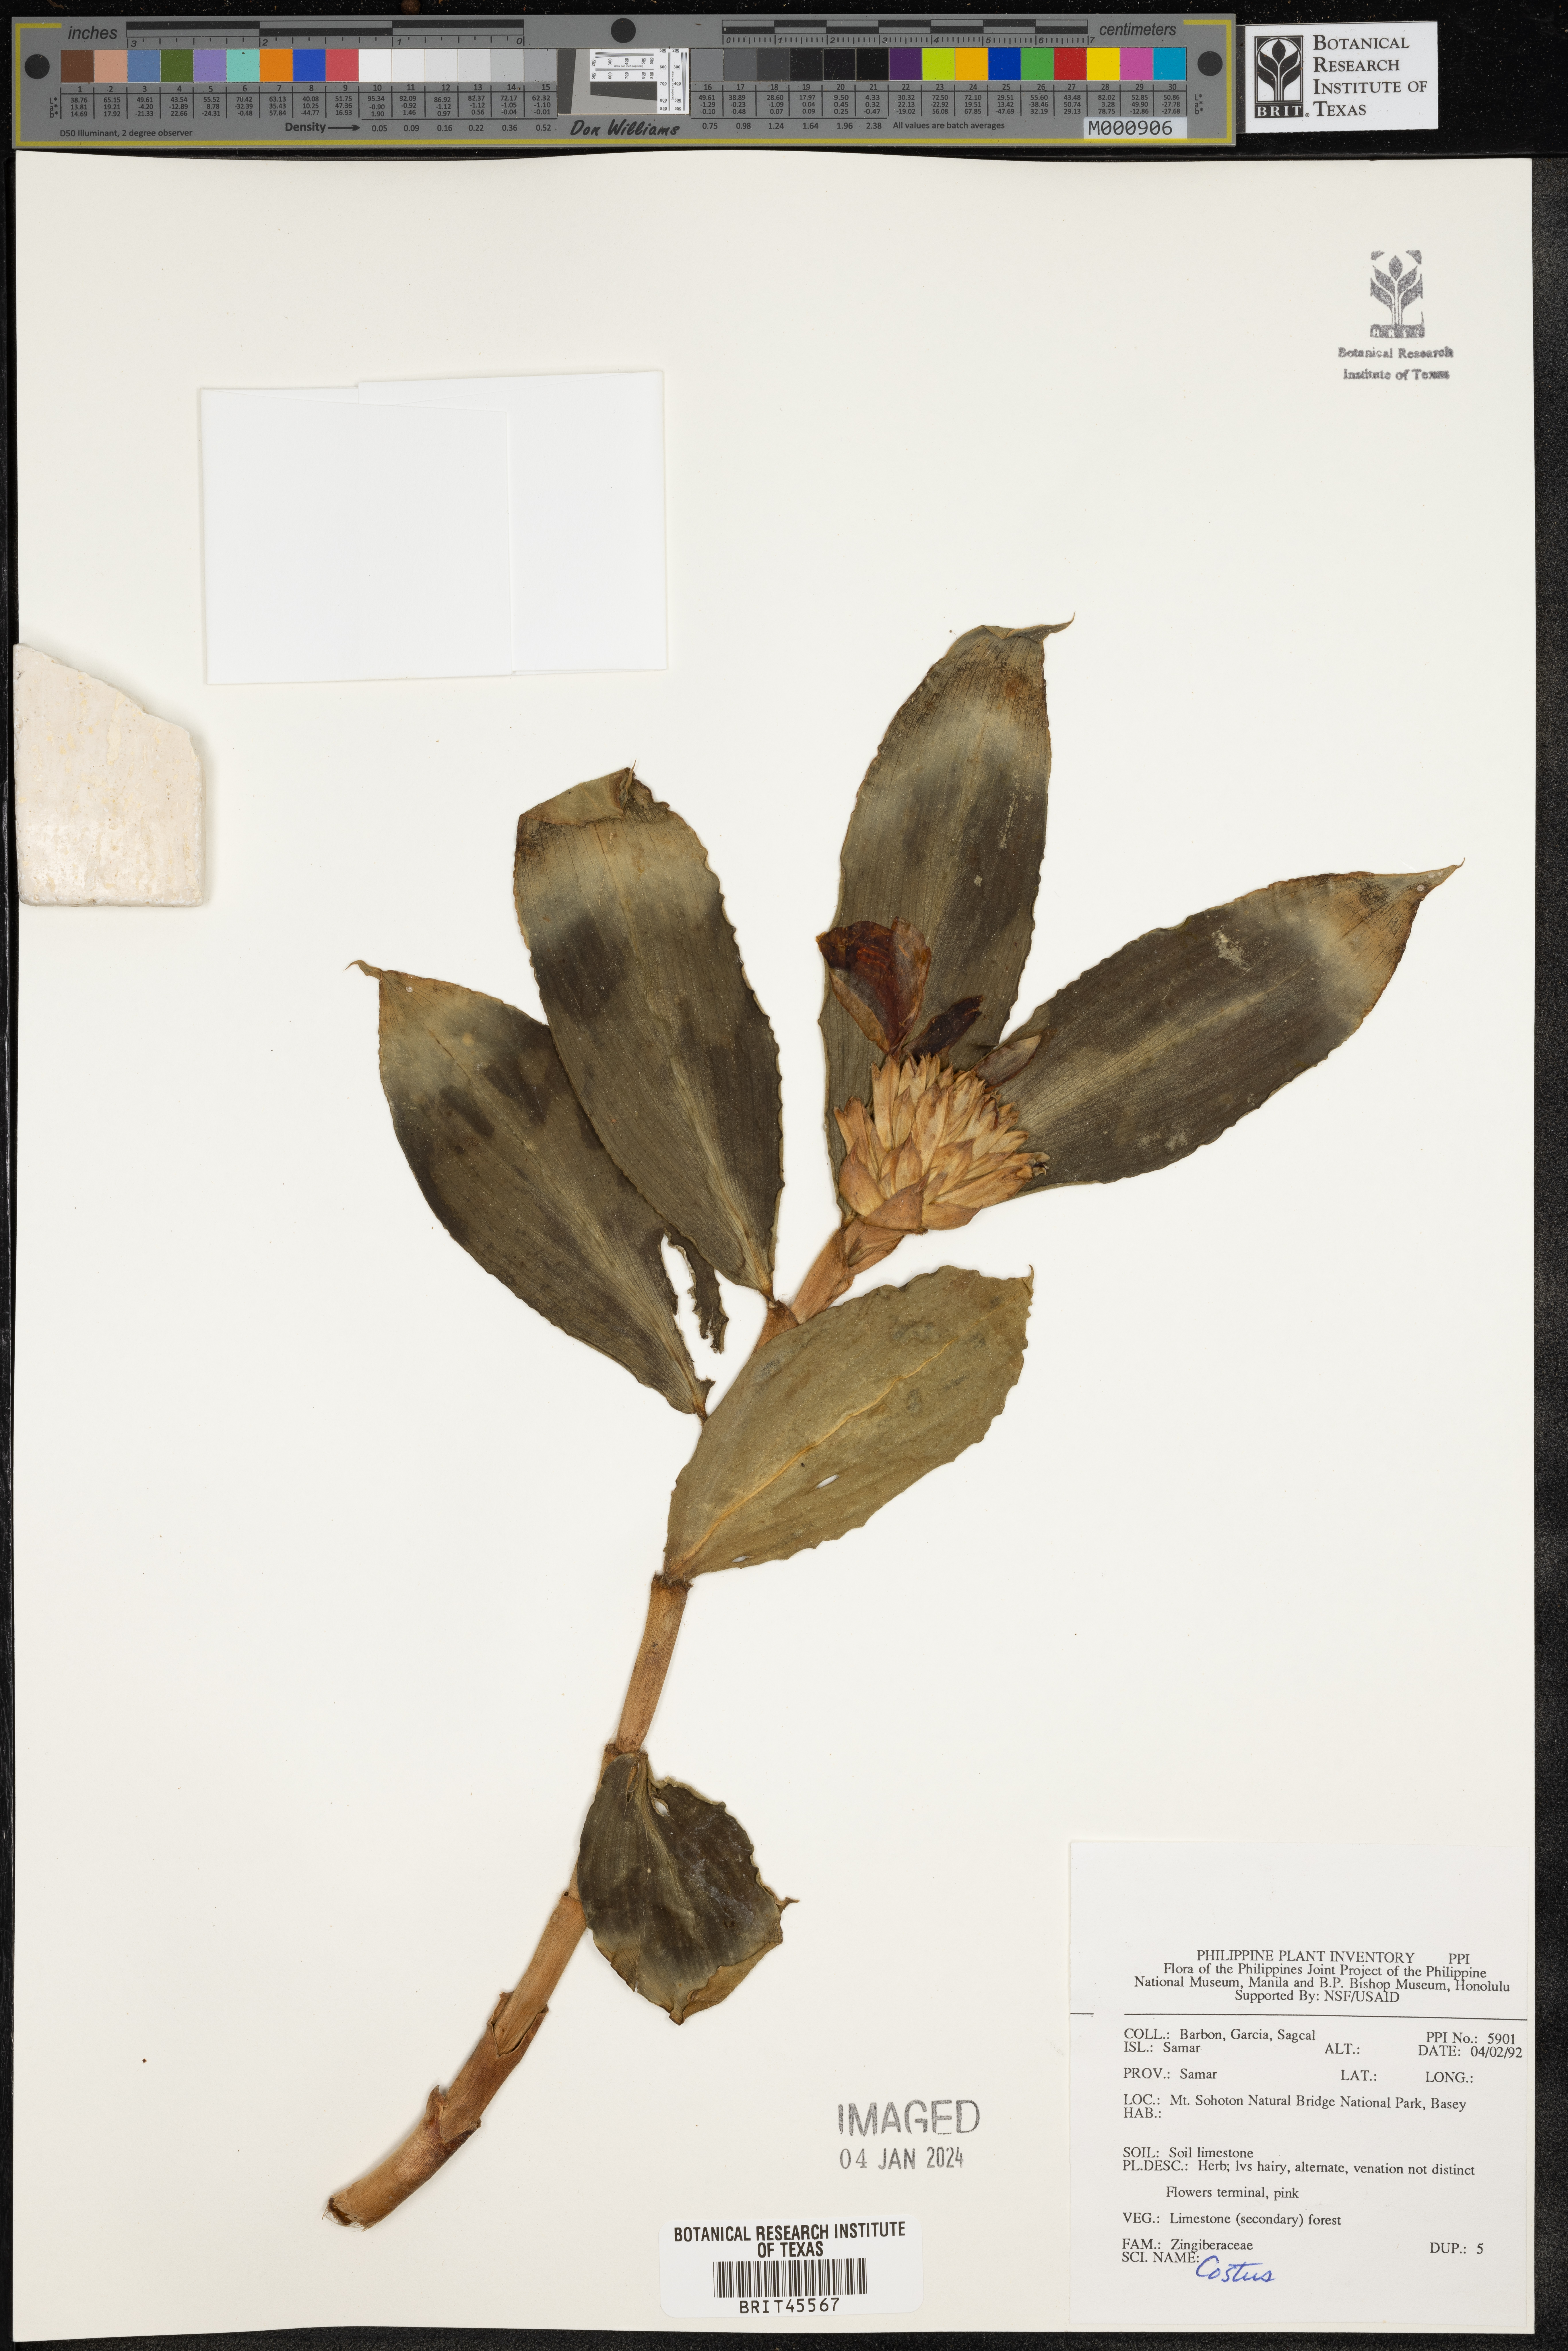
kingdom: Plantae
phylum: Tracheophyta
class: Liliopsida
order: Zingiberales
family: Costaceae
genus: Costus
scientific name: Costus
